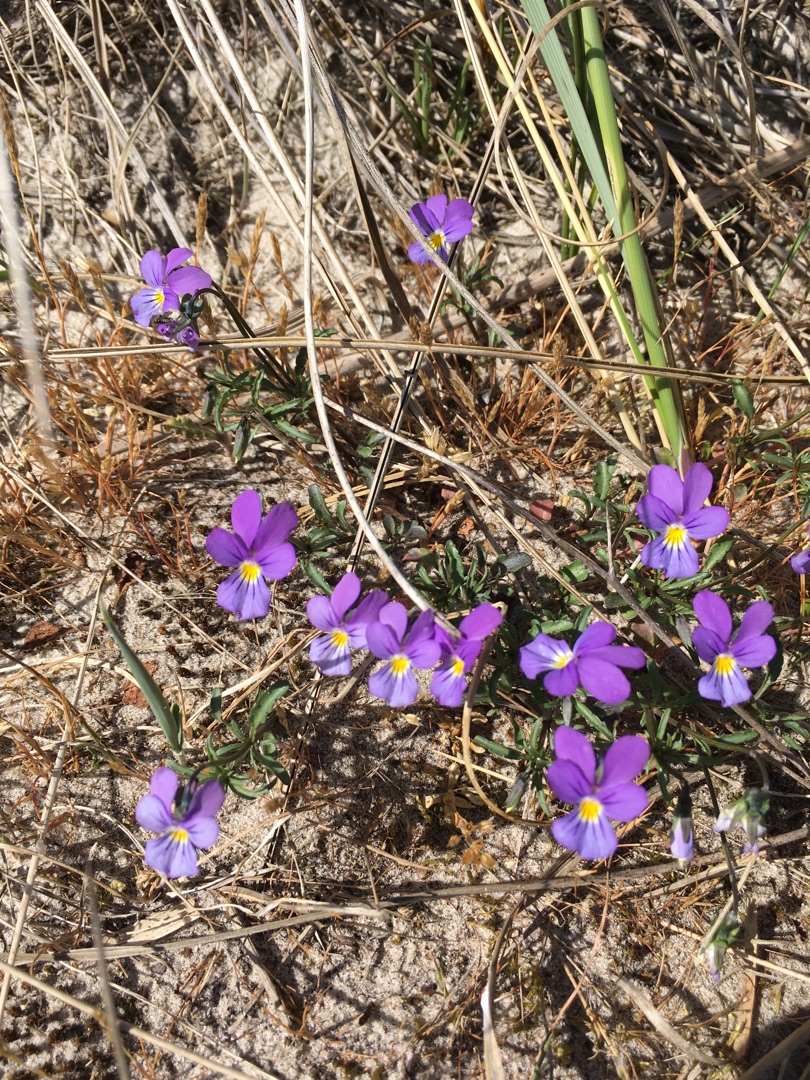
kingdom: Plantae
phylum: Tracheophyta
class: Magnoliopsida
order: Malpighiales
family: Violaceae
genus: Viola
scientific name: Viola tricolor
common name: Klit-stedmoderblomst
